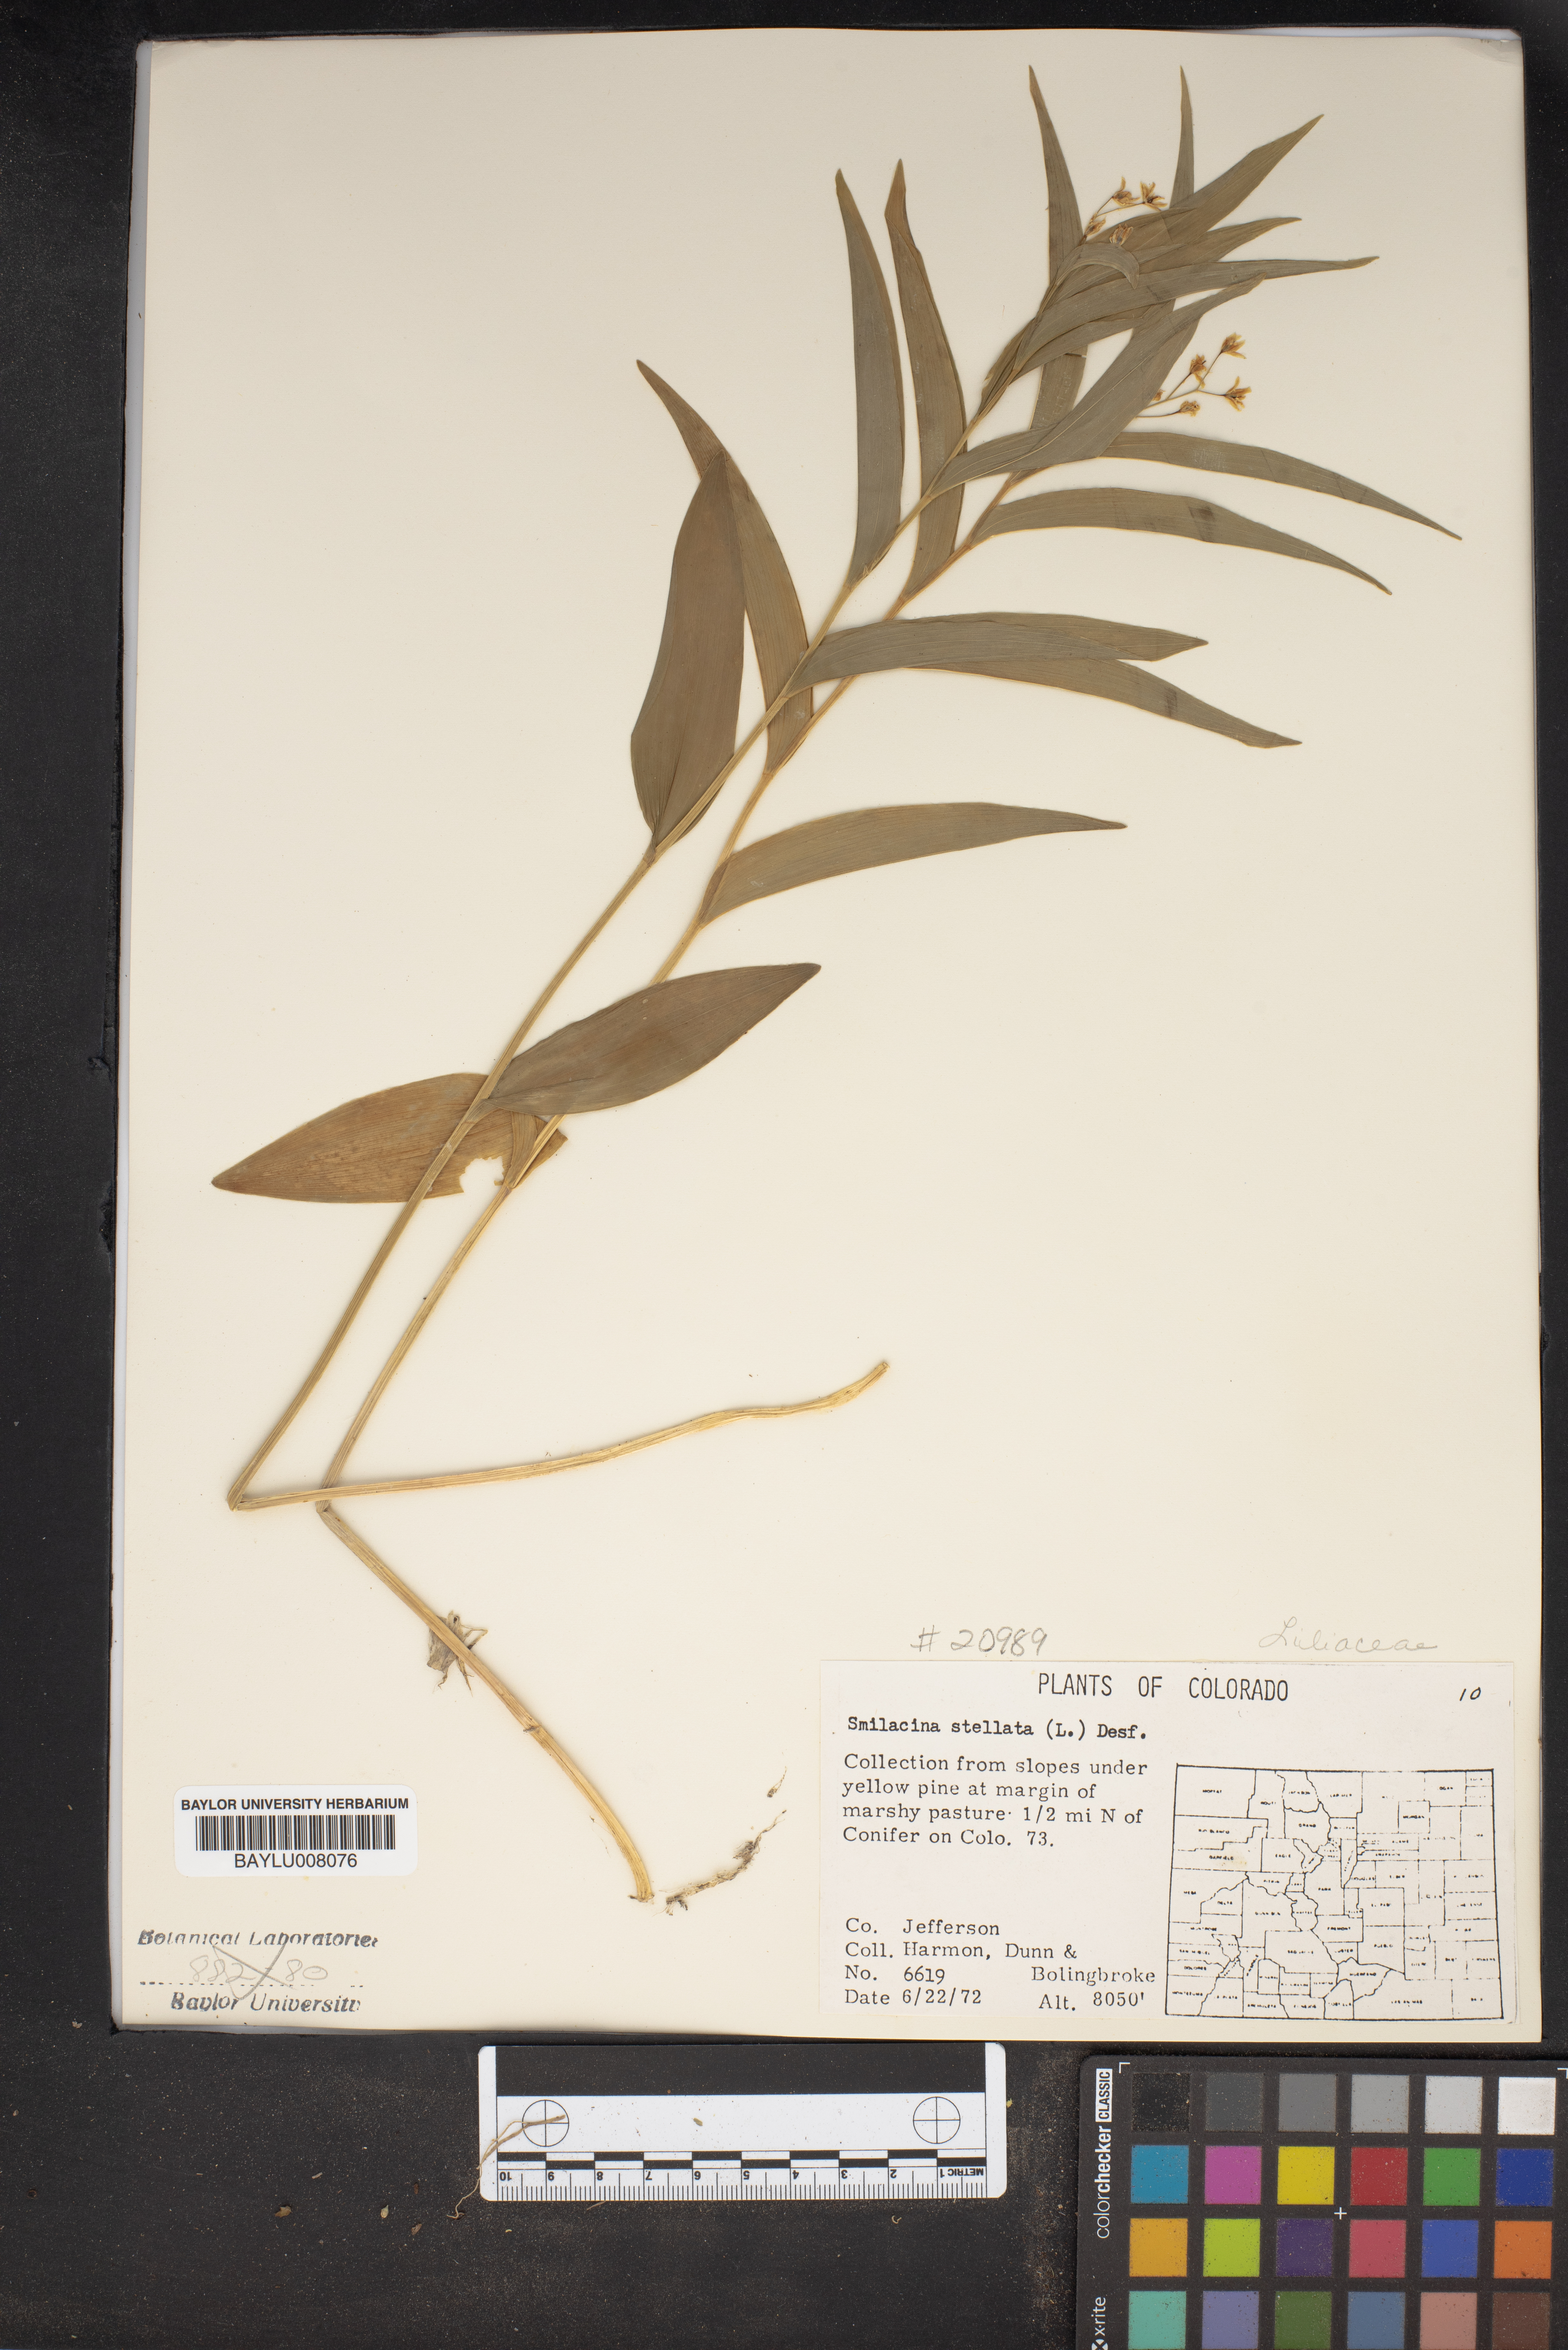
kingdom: Plantae
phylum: Tracheophyta
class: Liliopsida
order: Asparagales
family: Asparagaceae
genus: Maianthemum
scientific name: Maianthemum stellatum
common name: Little false solomon's seal
